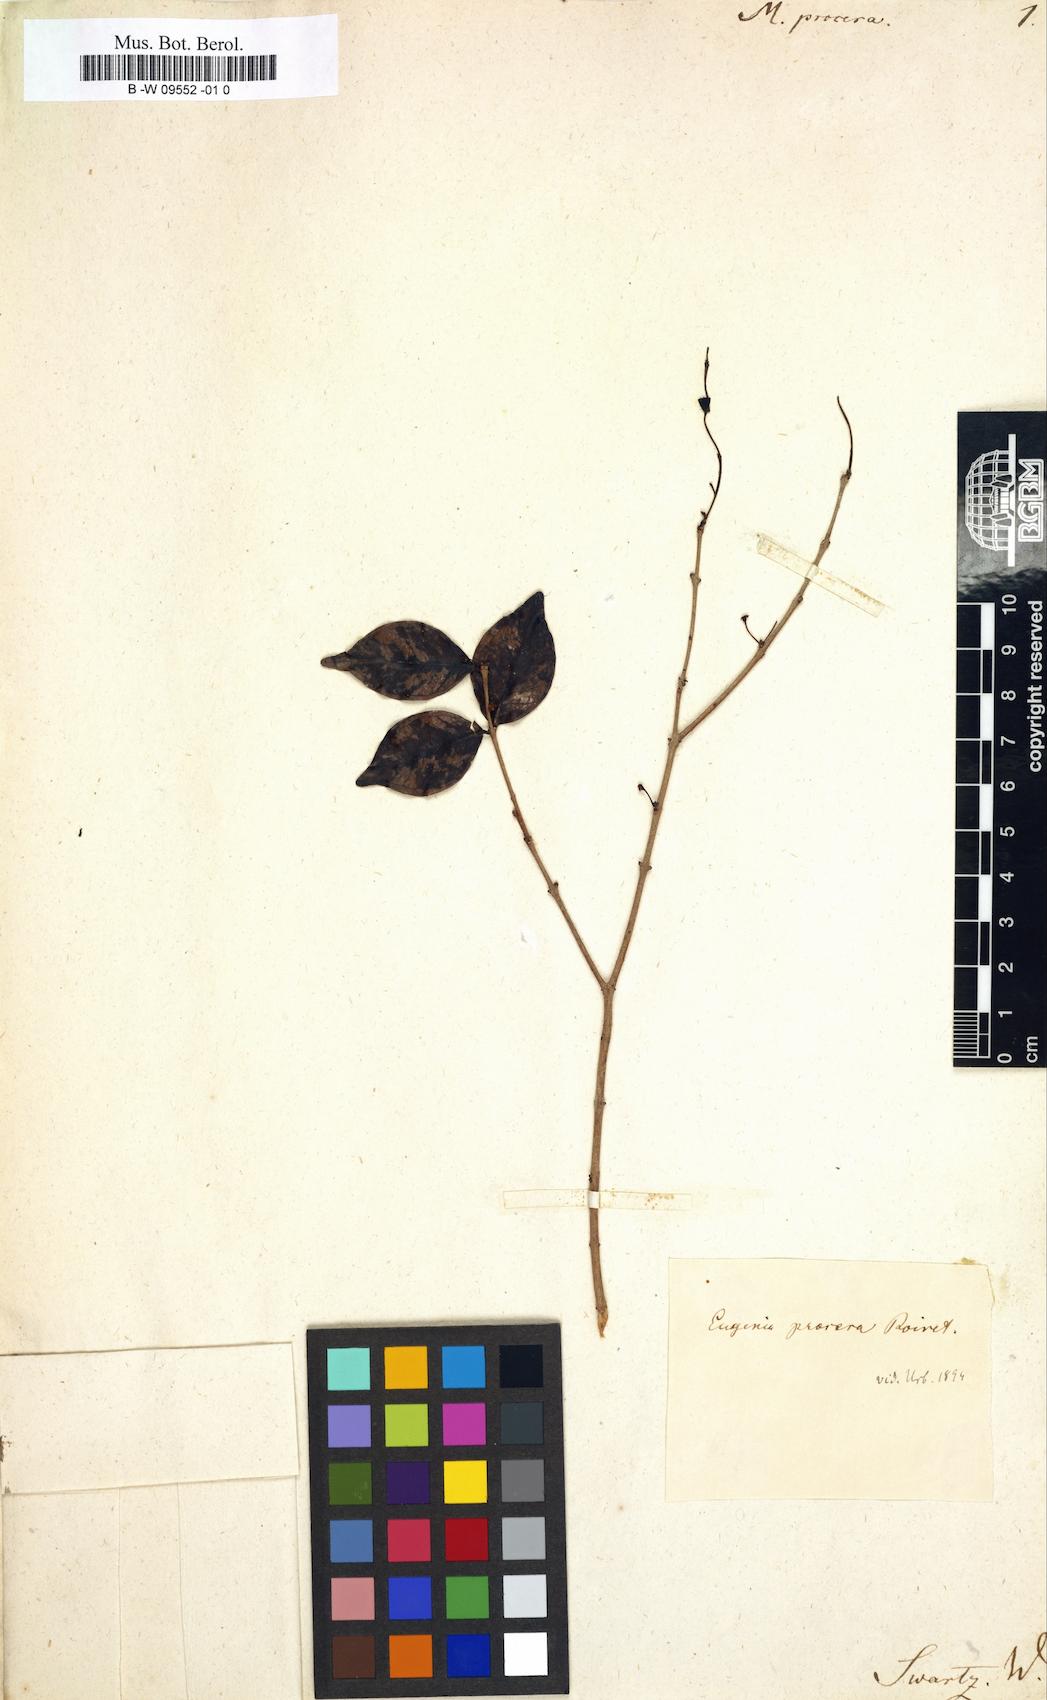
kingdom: Plantae
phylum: Tracheophyta
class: Magnoliopsida
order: Myrtales
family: Myrtaceae
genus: Eugenia
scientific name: Eugenia procera
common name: Bastard blackberry
